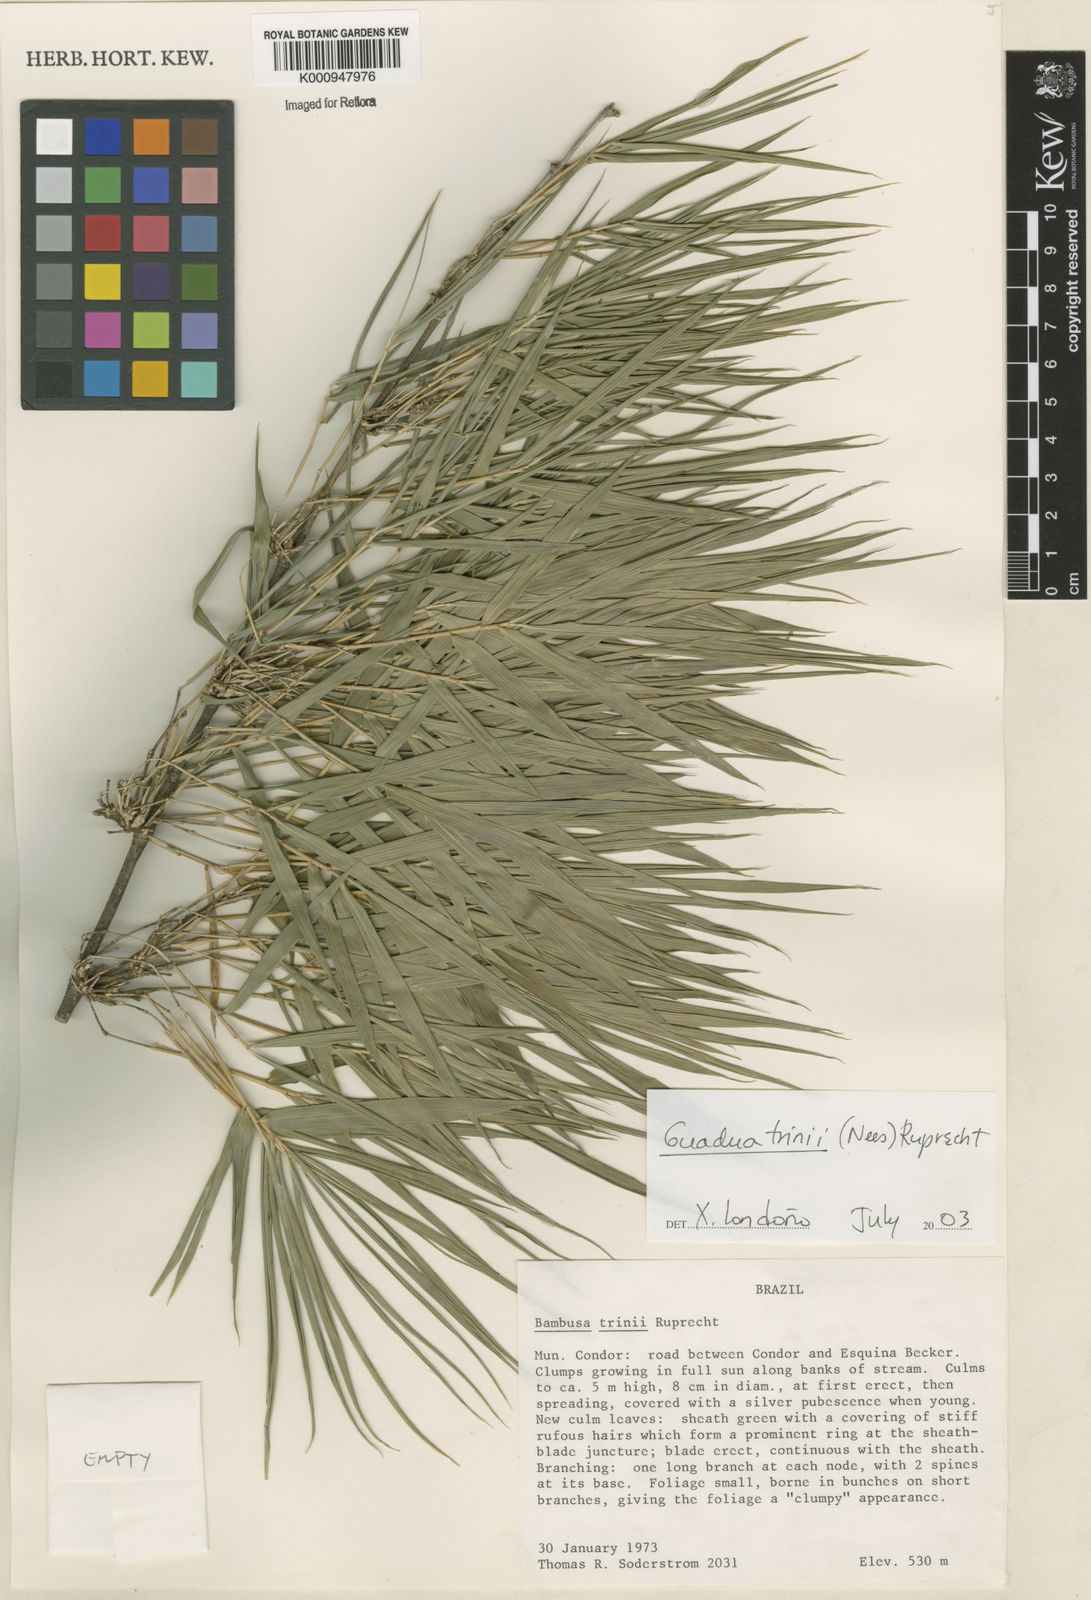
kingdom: Plantae
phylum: Tracheophyta
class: Liliopsida
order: Poales
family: Poaceae
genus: Guadua
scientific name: Guadua trinii
